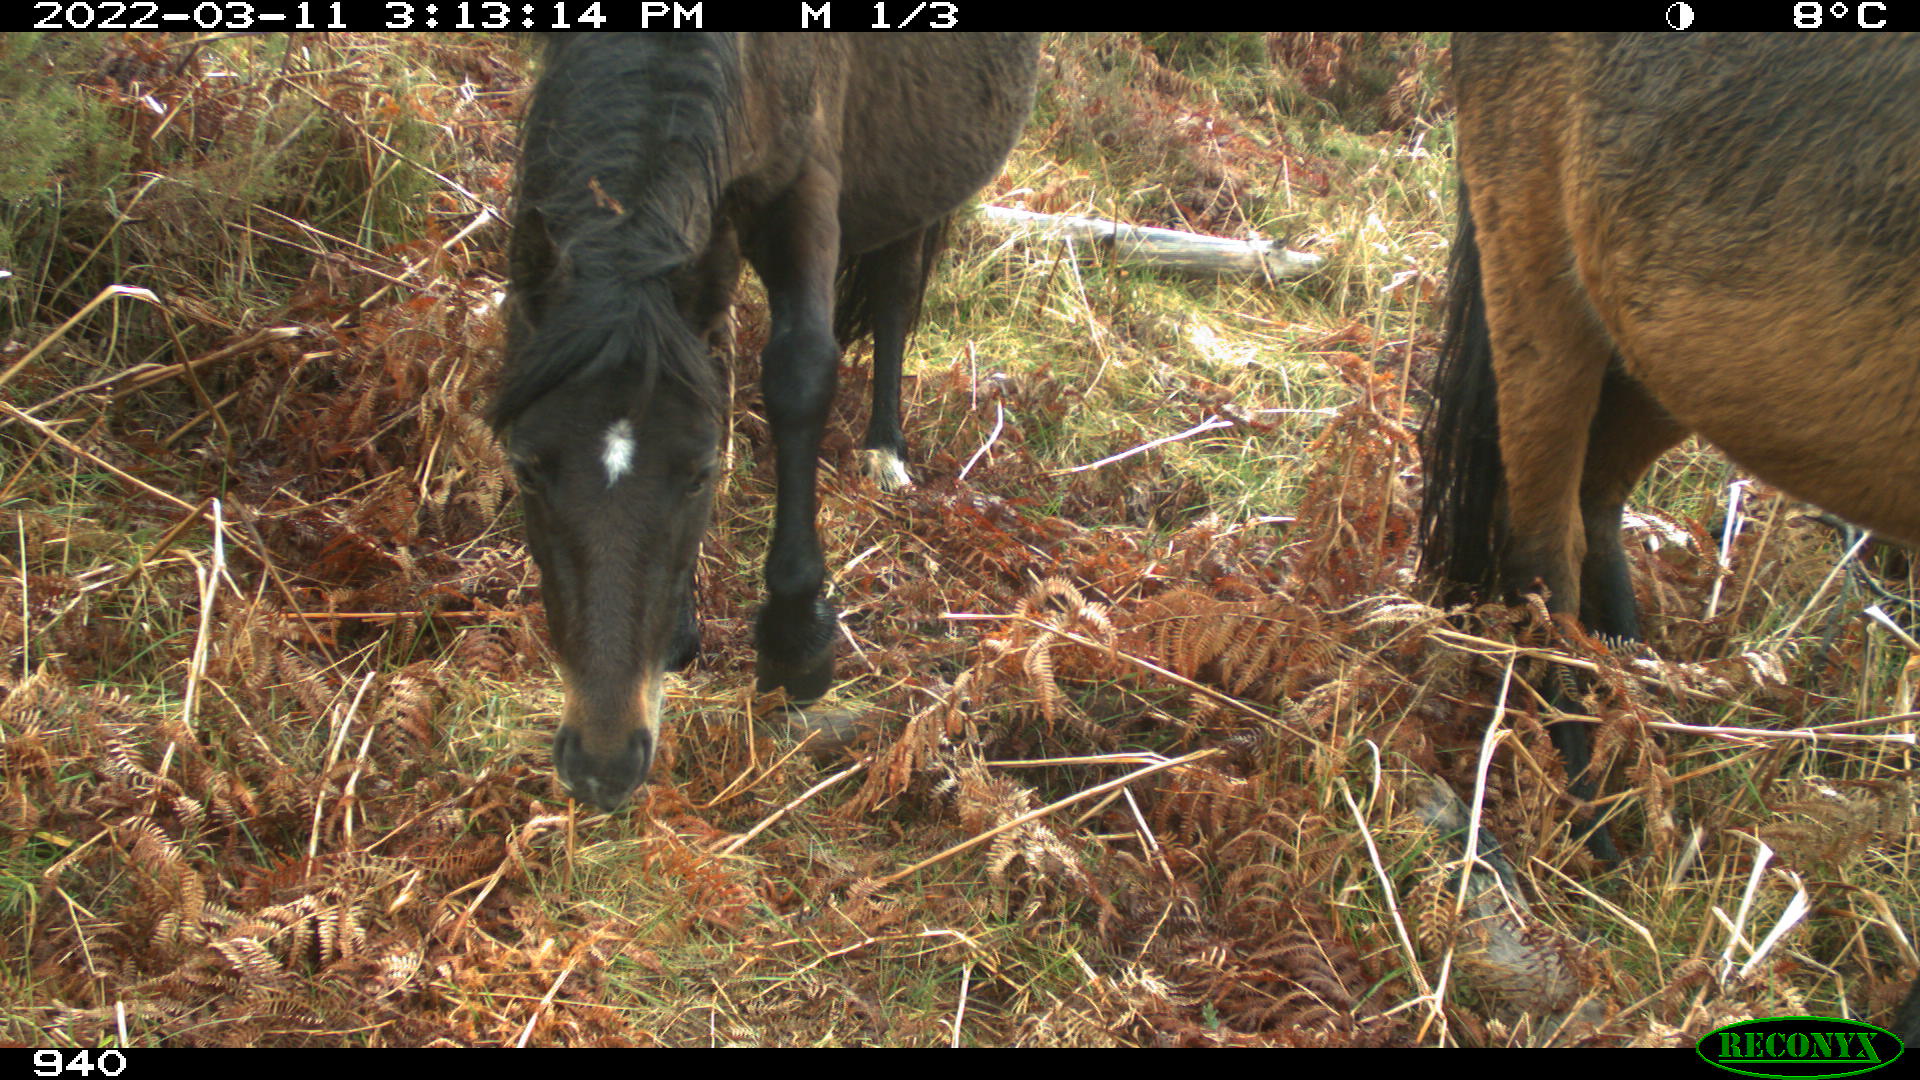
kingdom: Animalia
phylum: Chordata
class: Mammalia
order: Perissodactyla
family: Equidae
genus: Equus
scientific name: Equus caballus
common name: Horse
